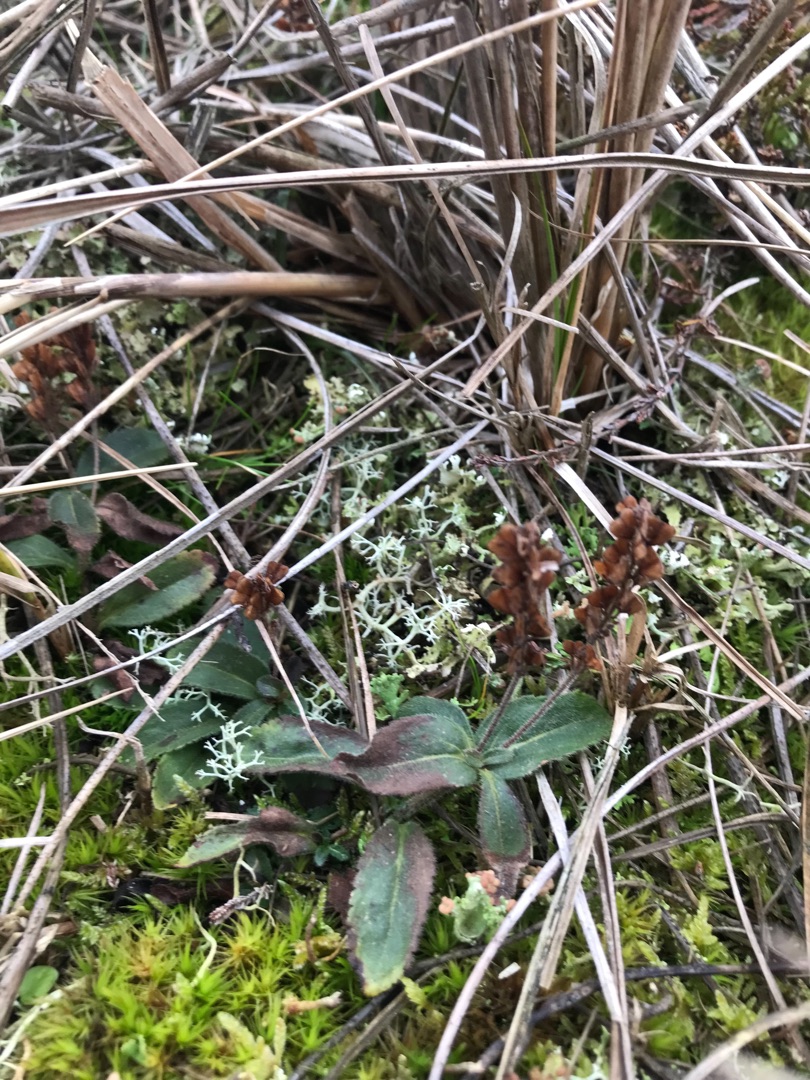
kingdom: Plantae
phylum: Tracheophyta
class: Magnoliopsida
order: Lamiales
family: Plantaginaceae
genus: Veronica
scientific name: Veronica officinalis
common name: Læge-ærenpris
